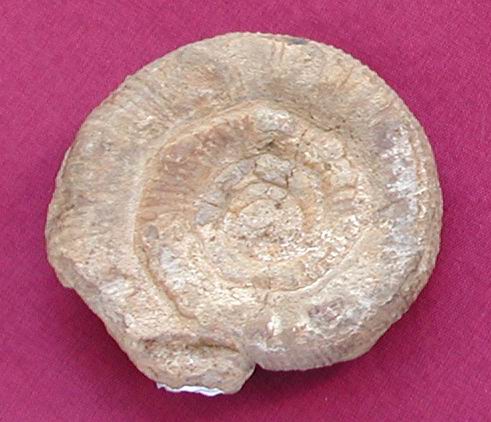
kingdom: Animalia
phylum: Mollusca
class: Cephalopoda
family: Dactylioceratidae
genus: Prodactylioceras
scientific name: Prodactylioceras
